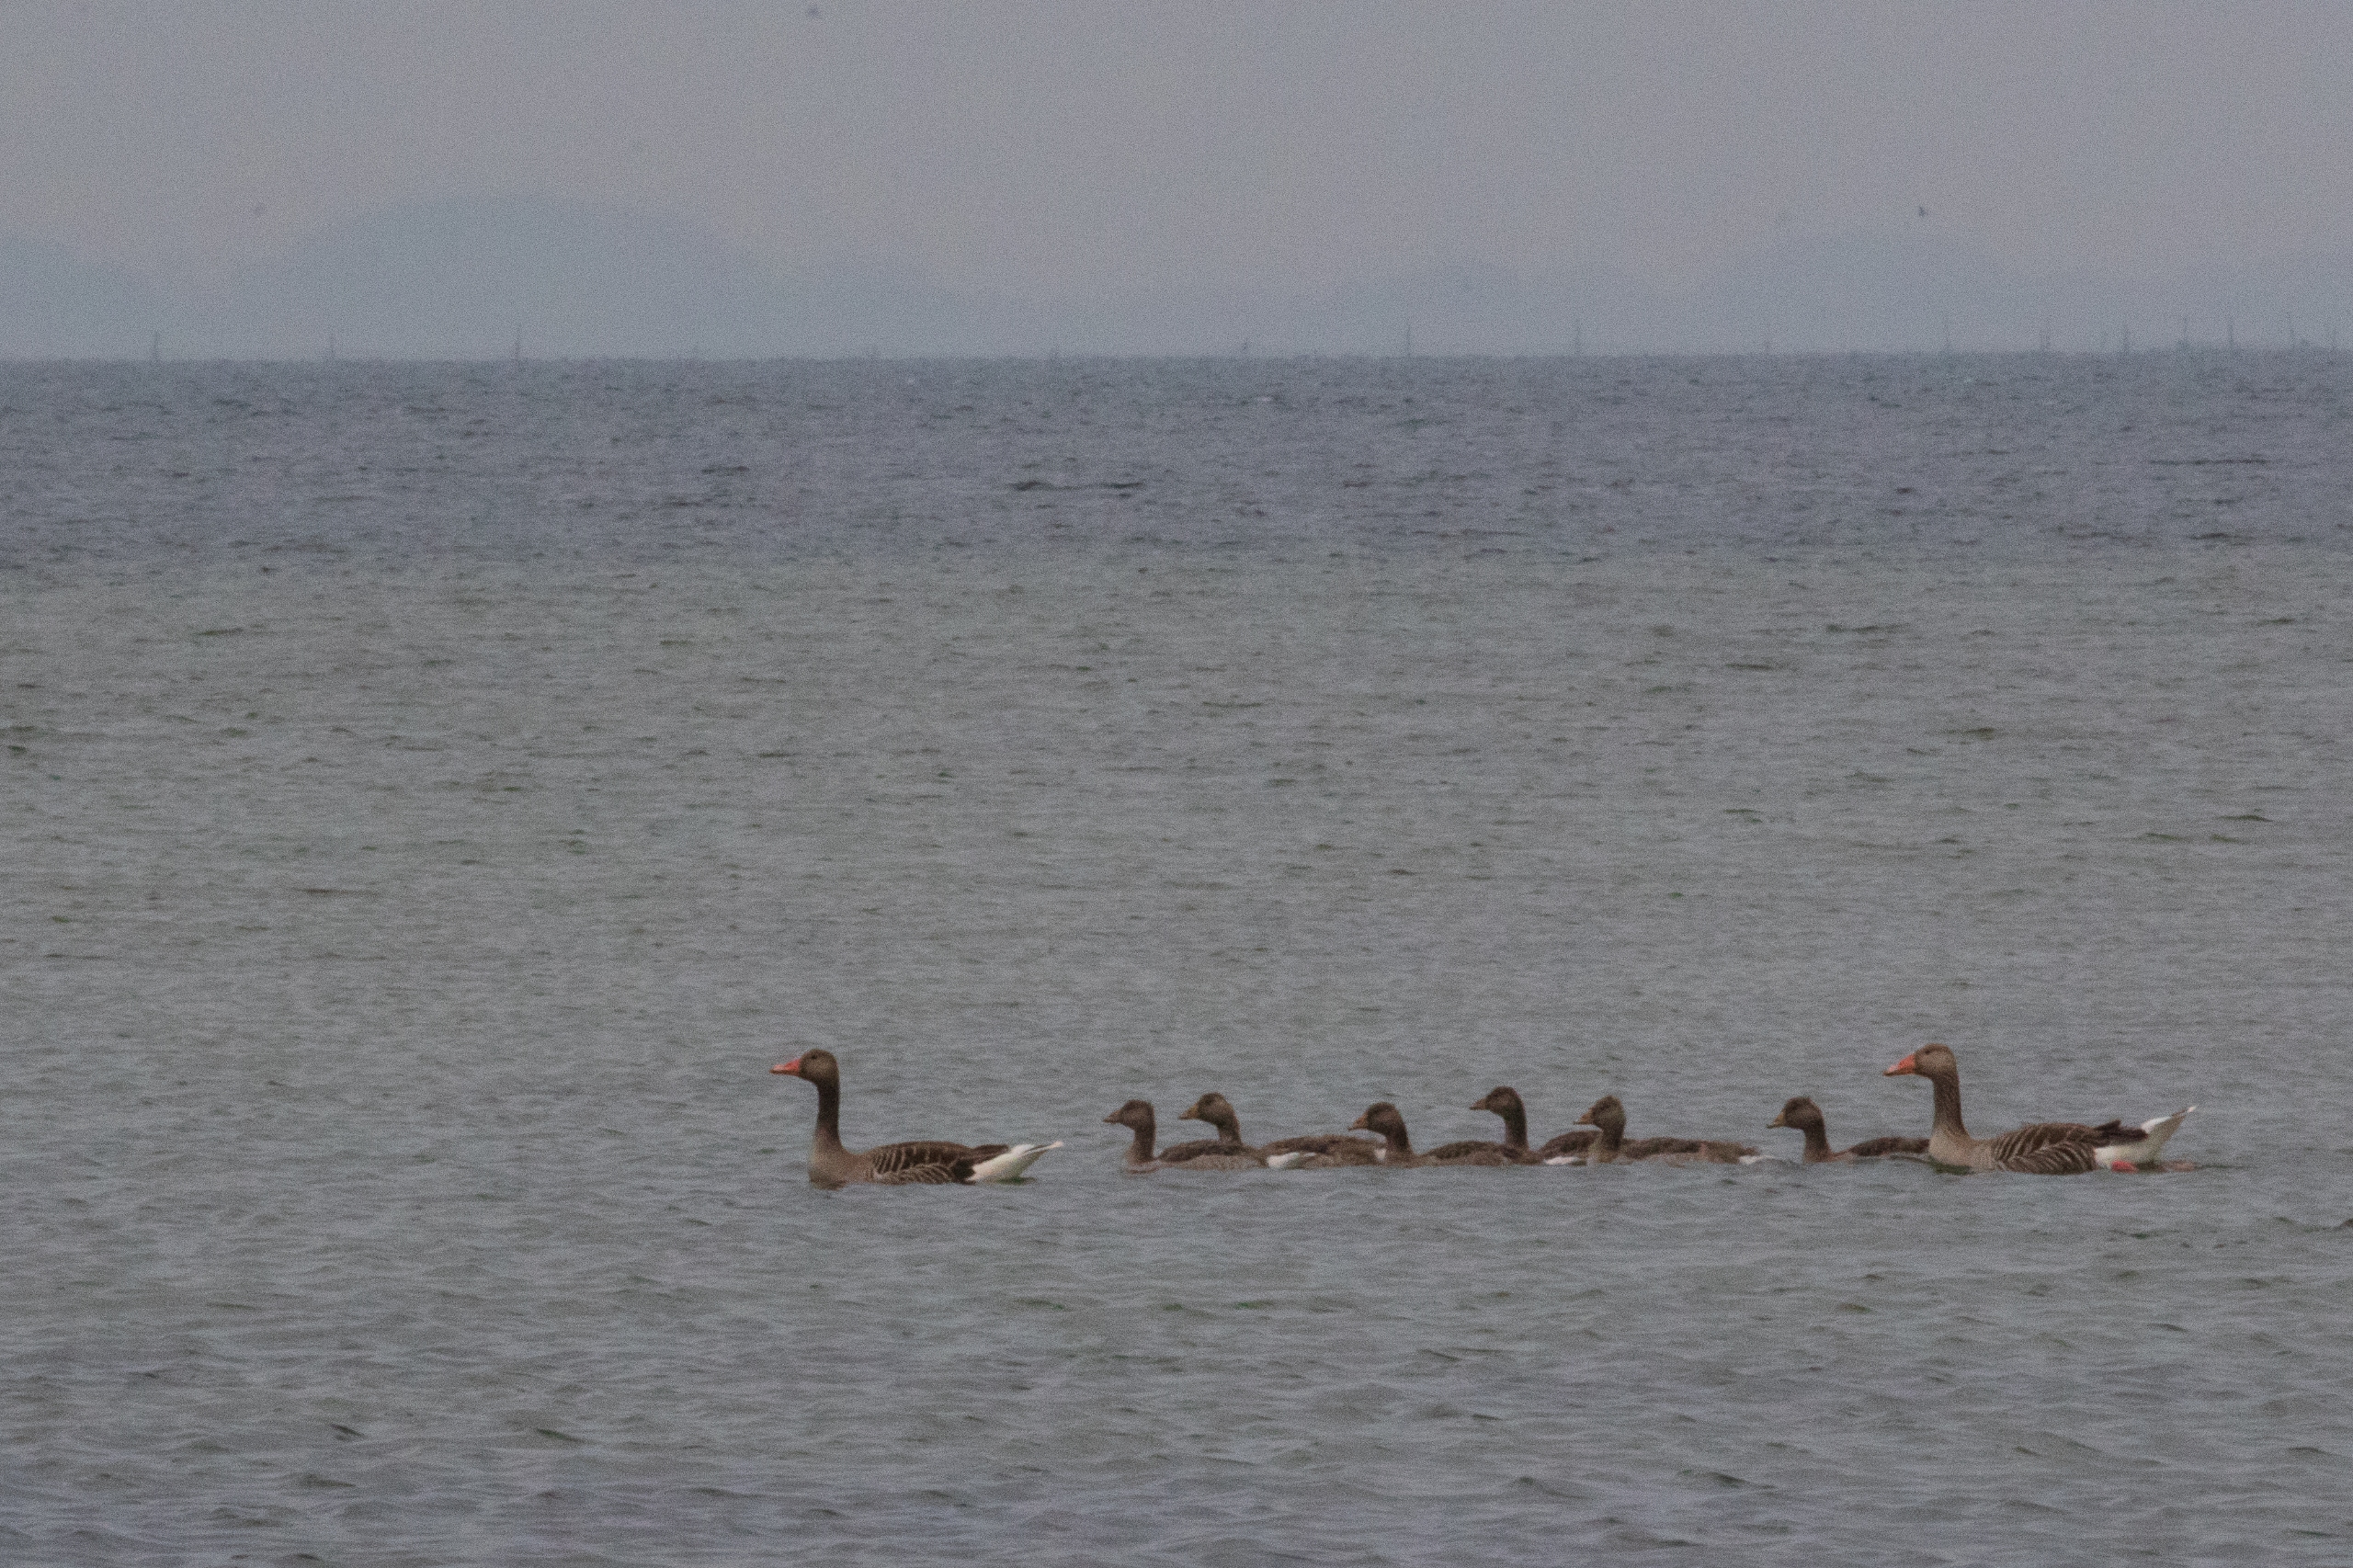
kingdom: Animalia
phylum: Chordata
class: Aves
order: Anseriformes
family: Anatidae
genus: Anser
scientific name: Anser anser
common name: Grågås
